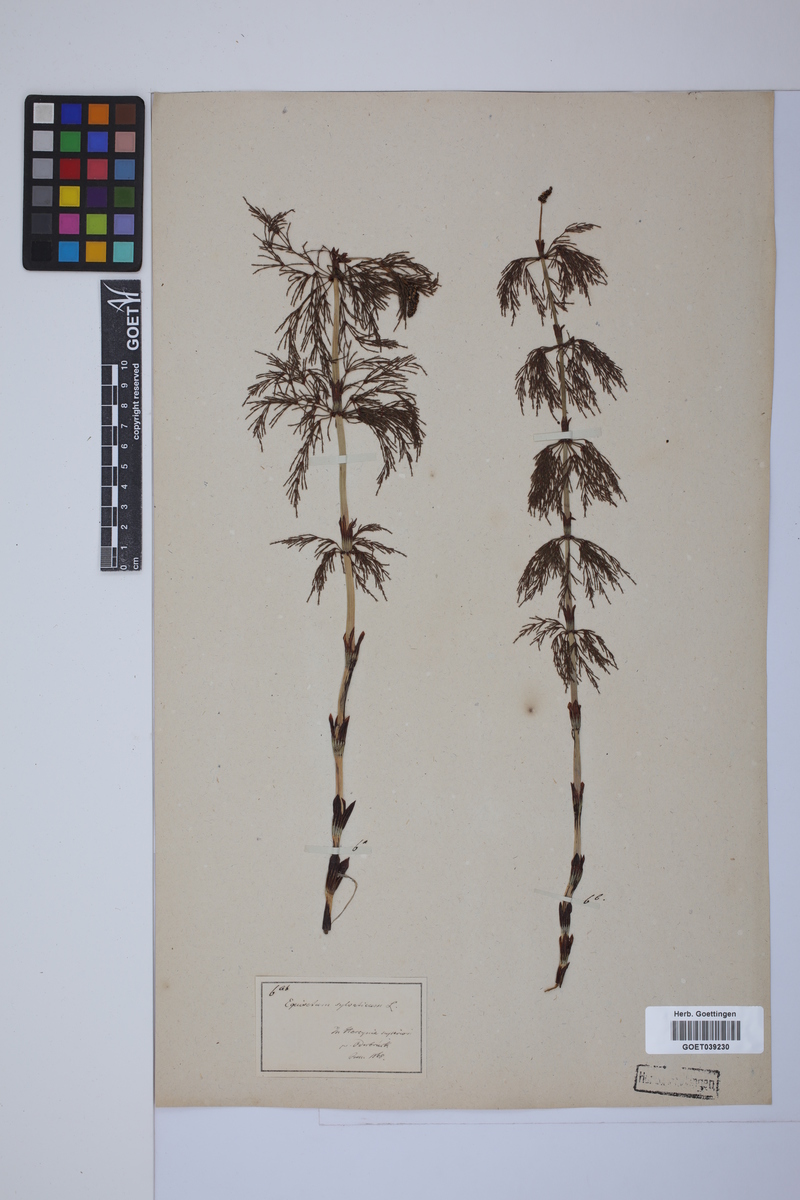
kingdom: Plantae
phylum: Tracheophyta
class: Polypodiopsida
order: Equisetales
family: Equisetaceae
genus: Equisetum
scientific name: Equisetum sylvaticum
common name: Wood horsetail
